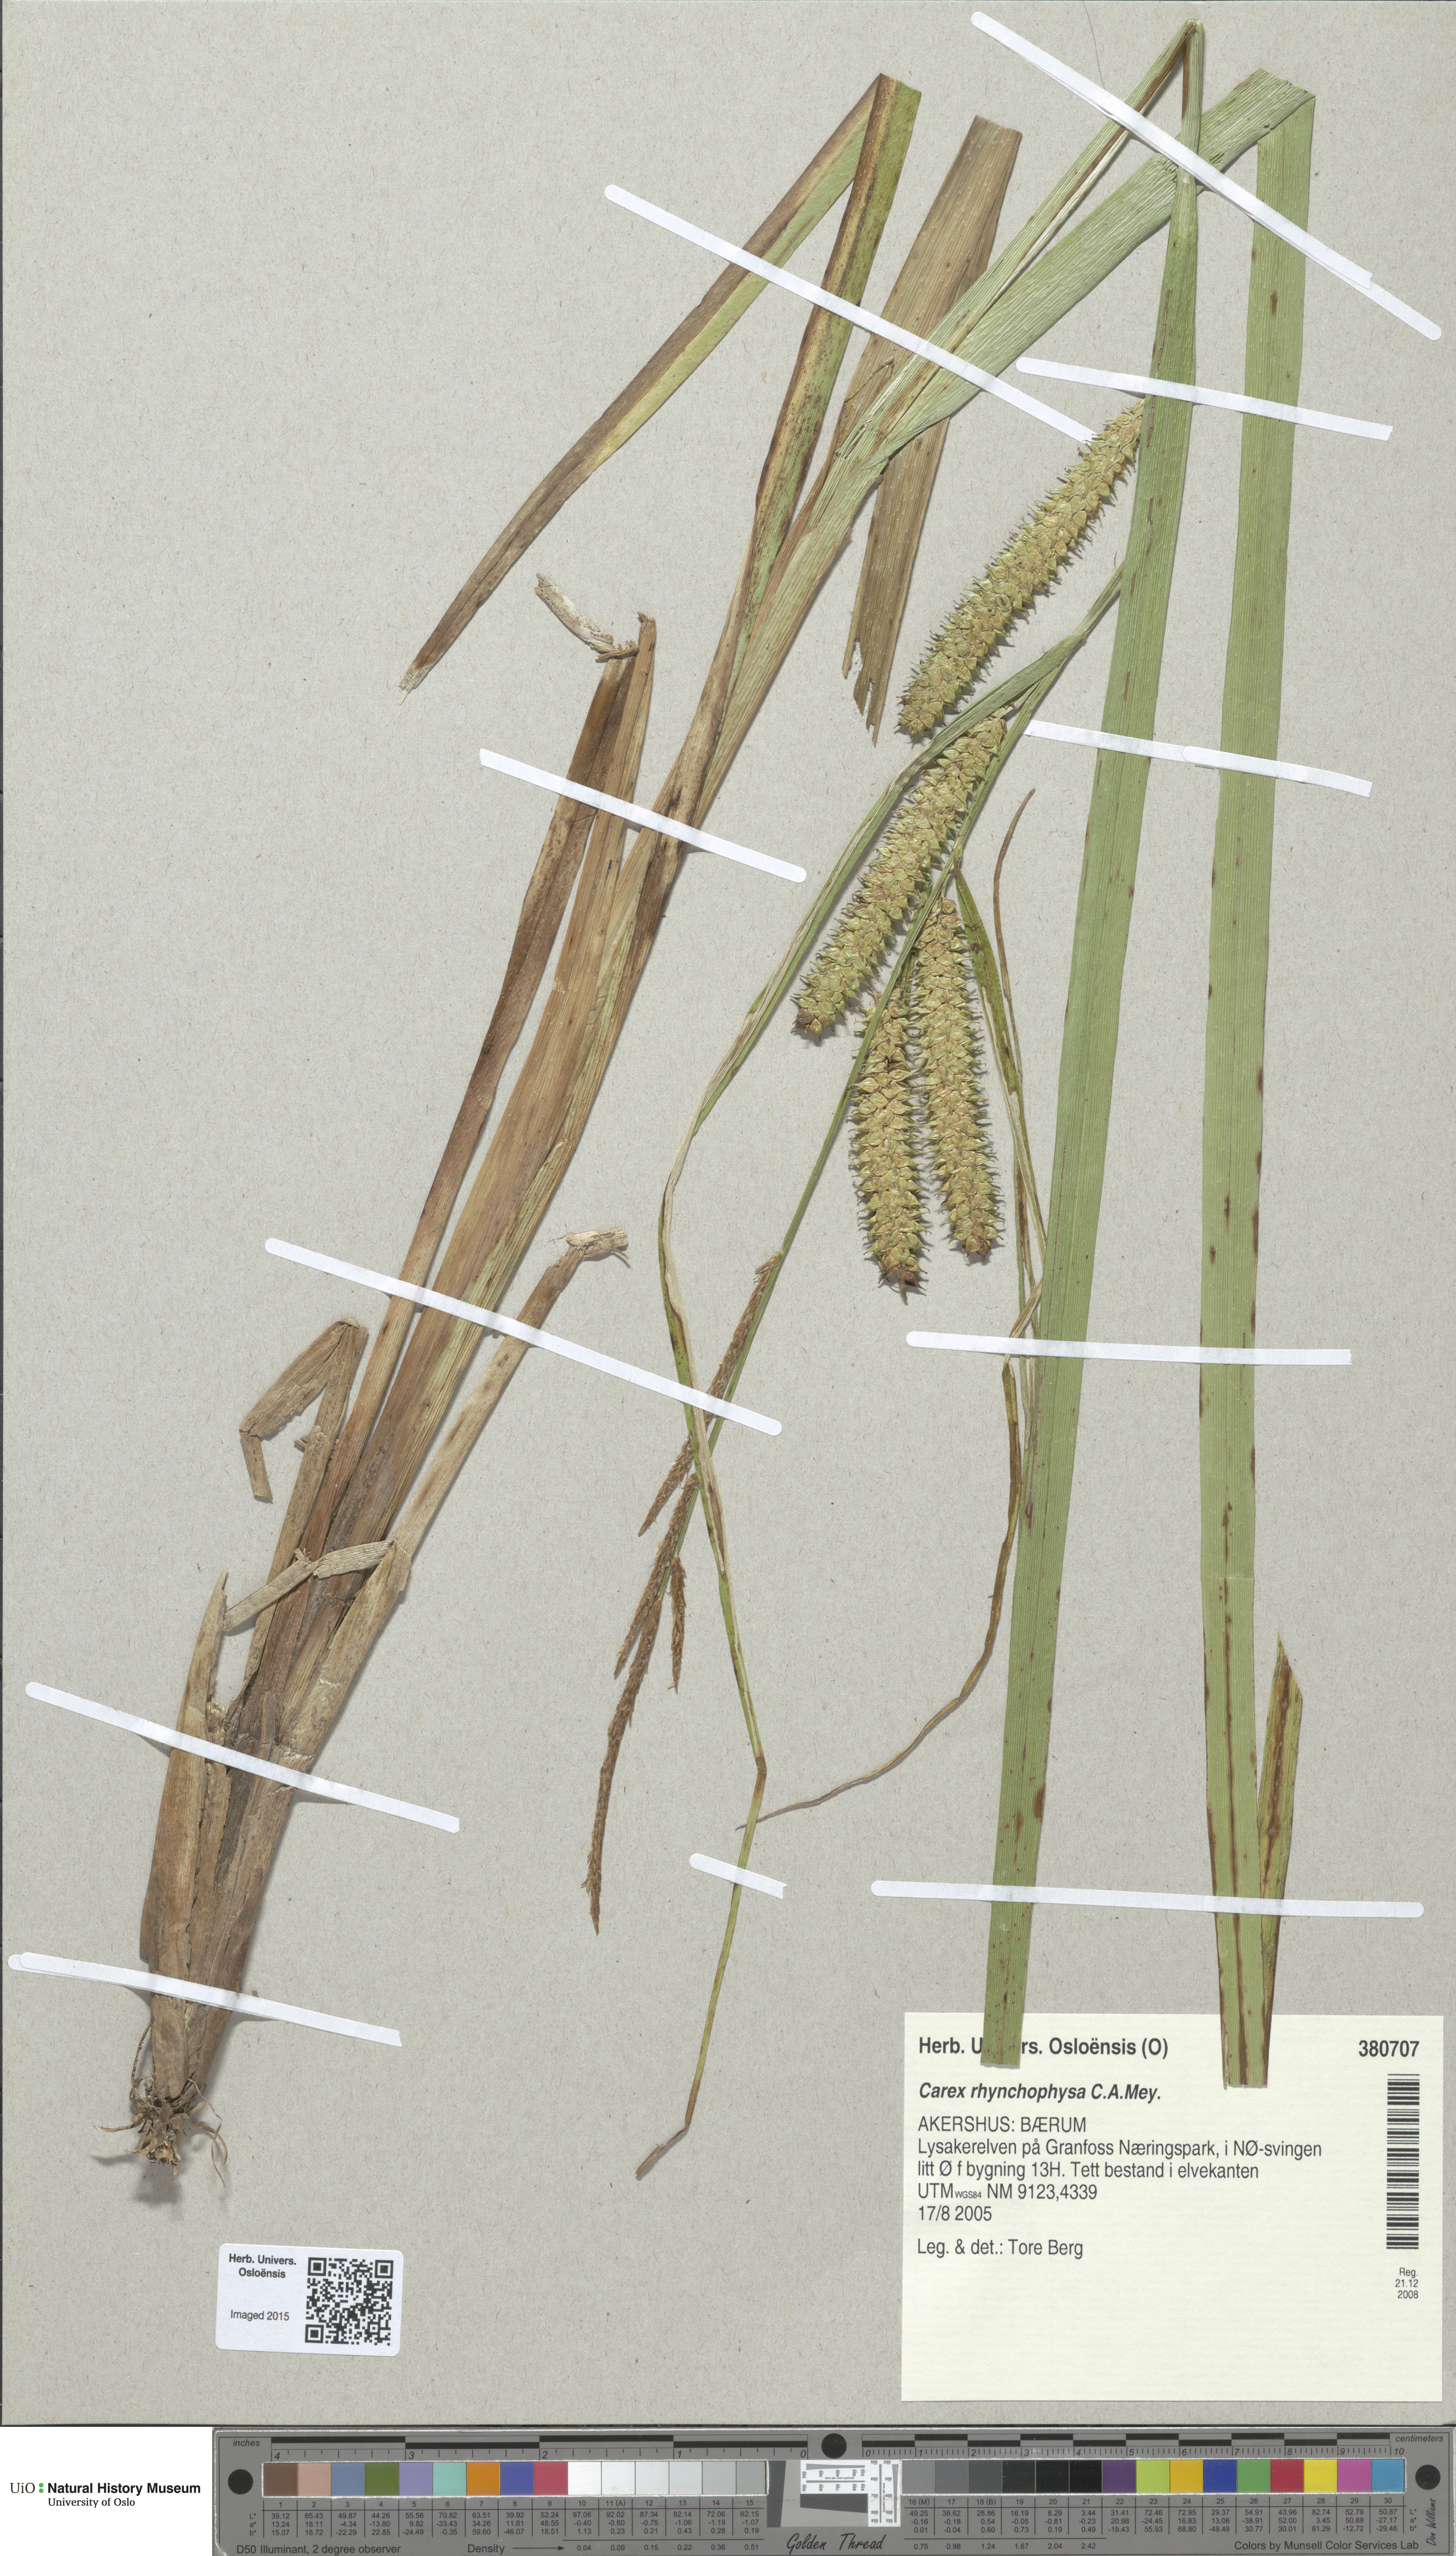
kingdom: Plantae
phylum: Tracheophyta
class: Liliopsida
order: Poales
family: Cyperaceae
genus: Carex
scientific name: Carex utriculata
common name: Beaked sedge
